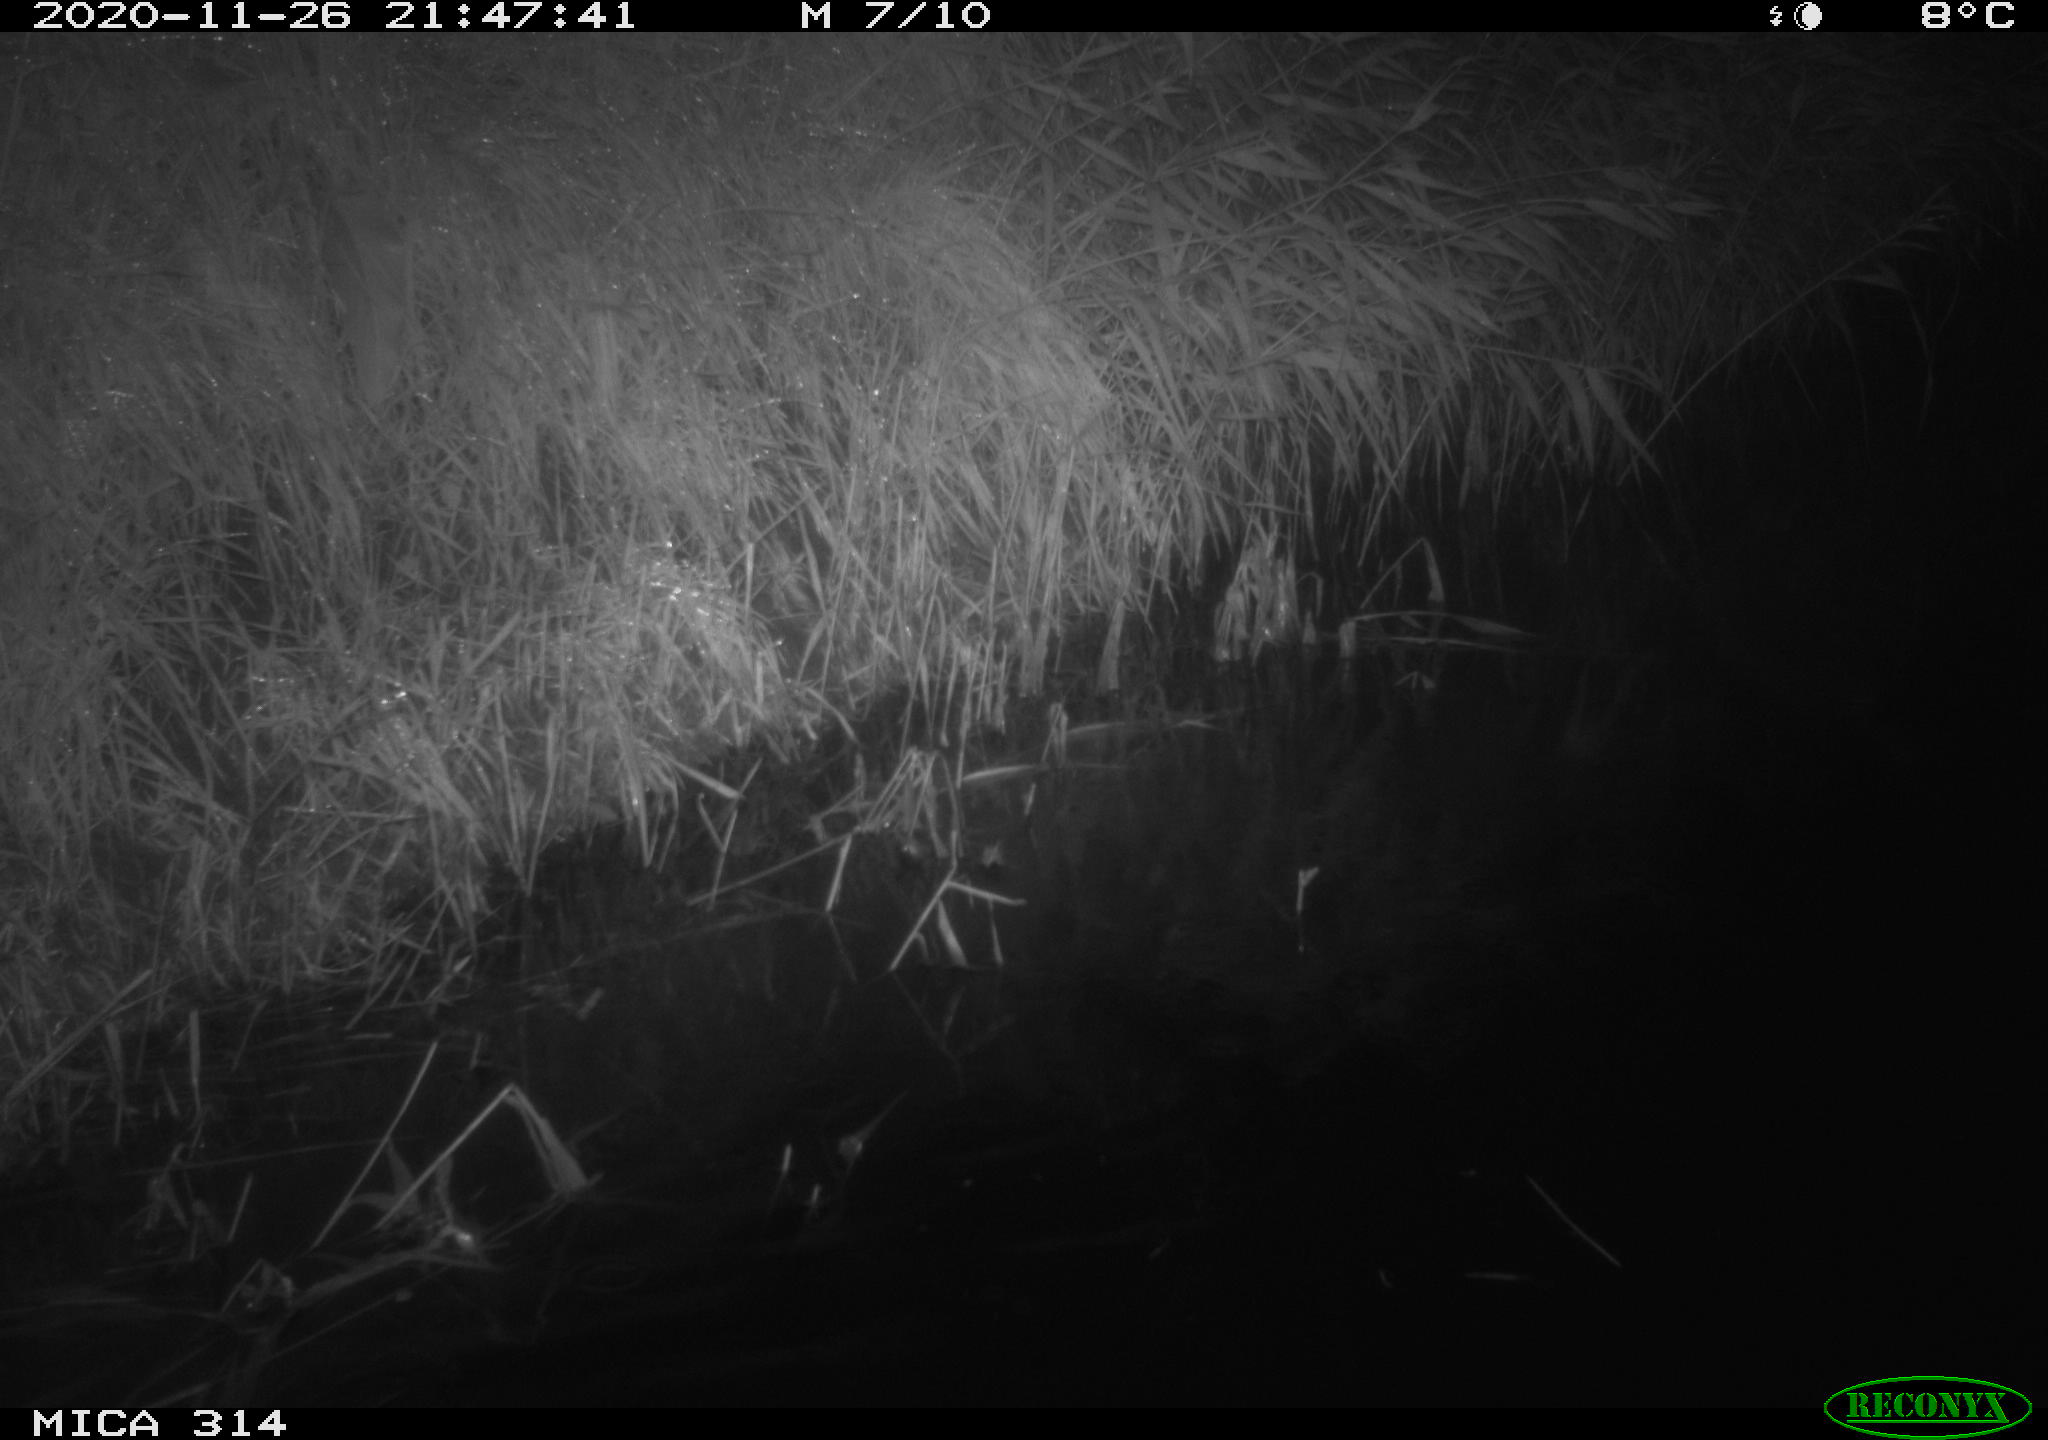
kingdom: Animalia
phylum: Chordata
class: Mammalia
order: Rodentia
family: Muridae
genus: Rattus
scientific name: Rattus norvegicus
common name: Brown rat
